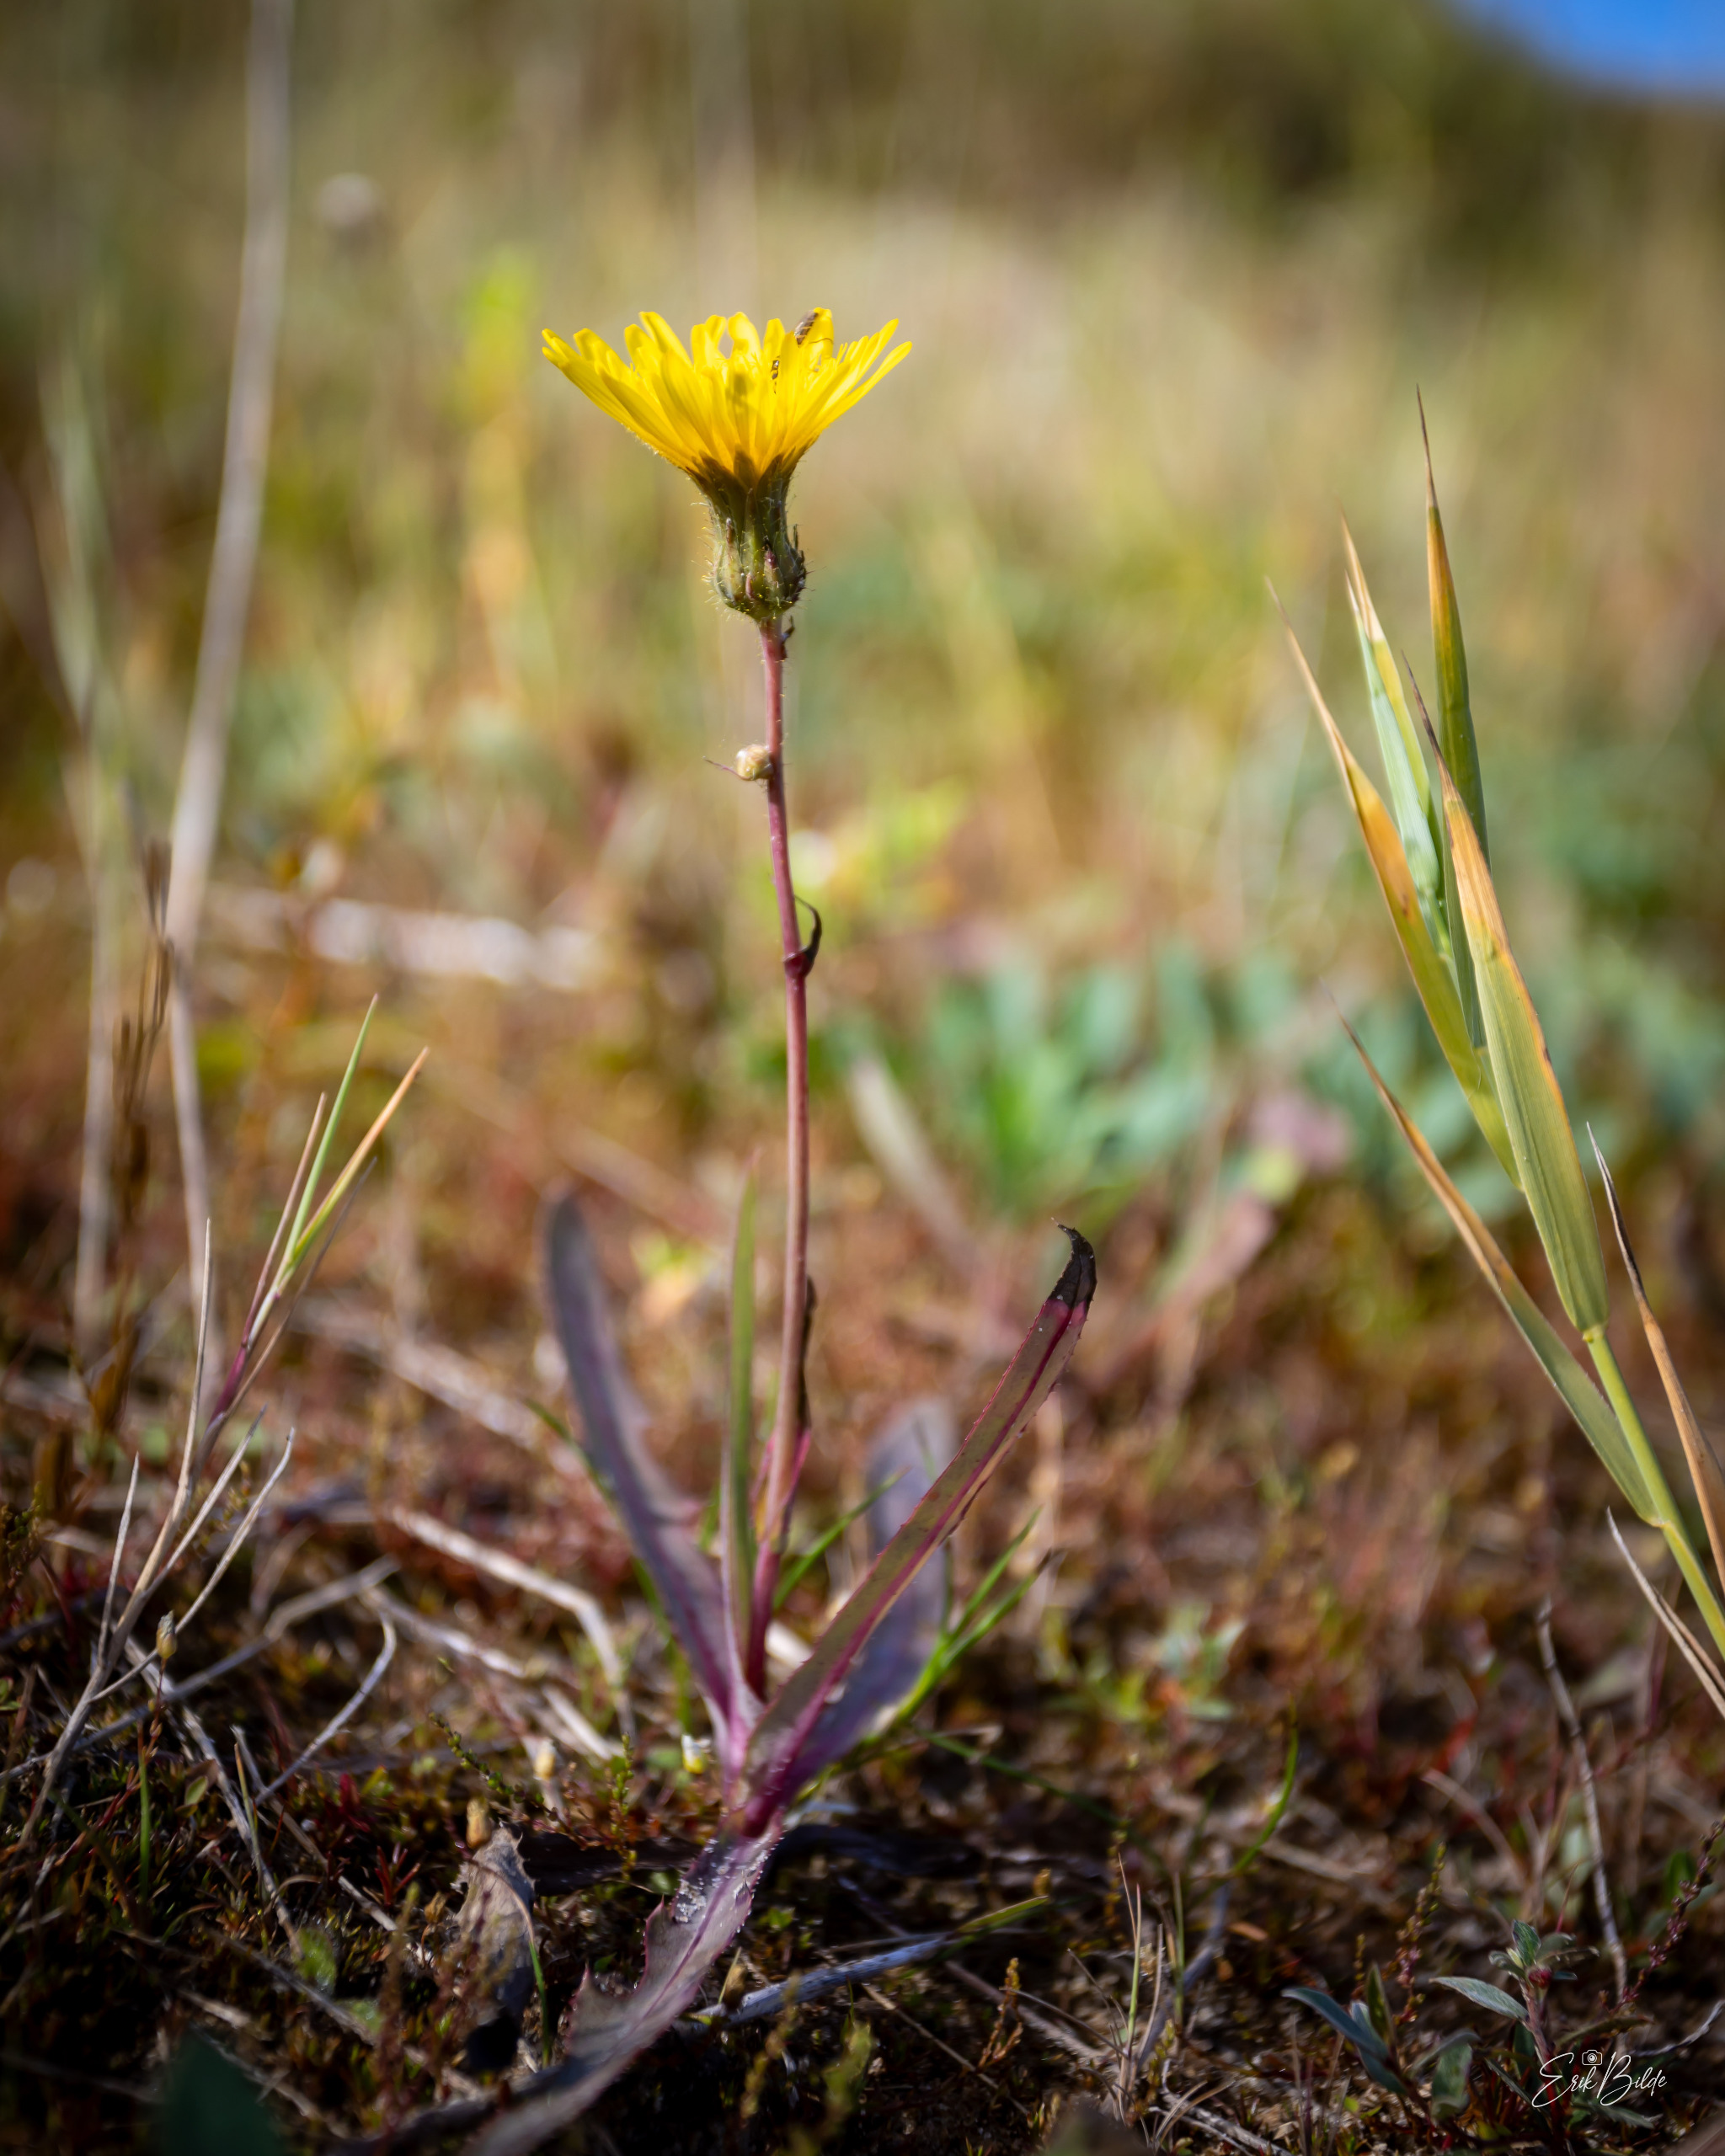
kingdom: Plantae
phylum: Tracheophyta
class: Magnoliopsida
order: Asterales
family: Asteraceae
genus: Sonchus
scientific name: Sonchus arvensis
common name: Ager-svinemælk
